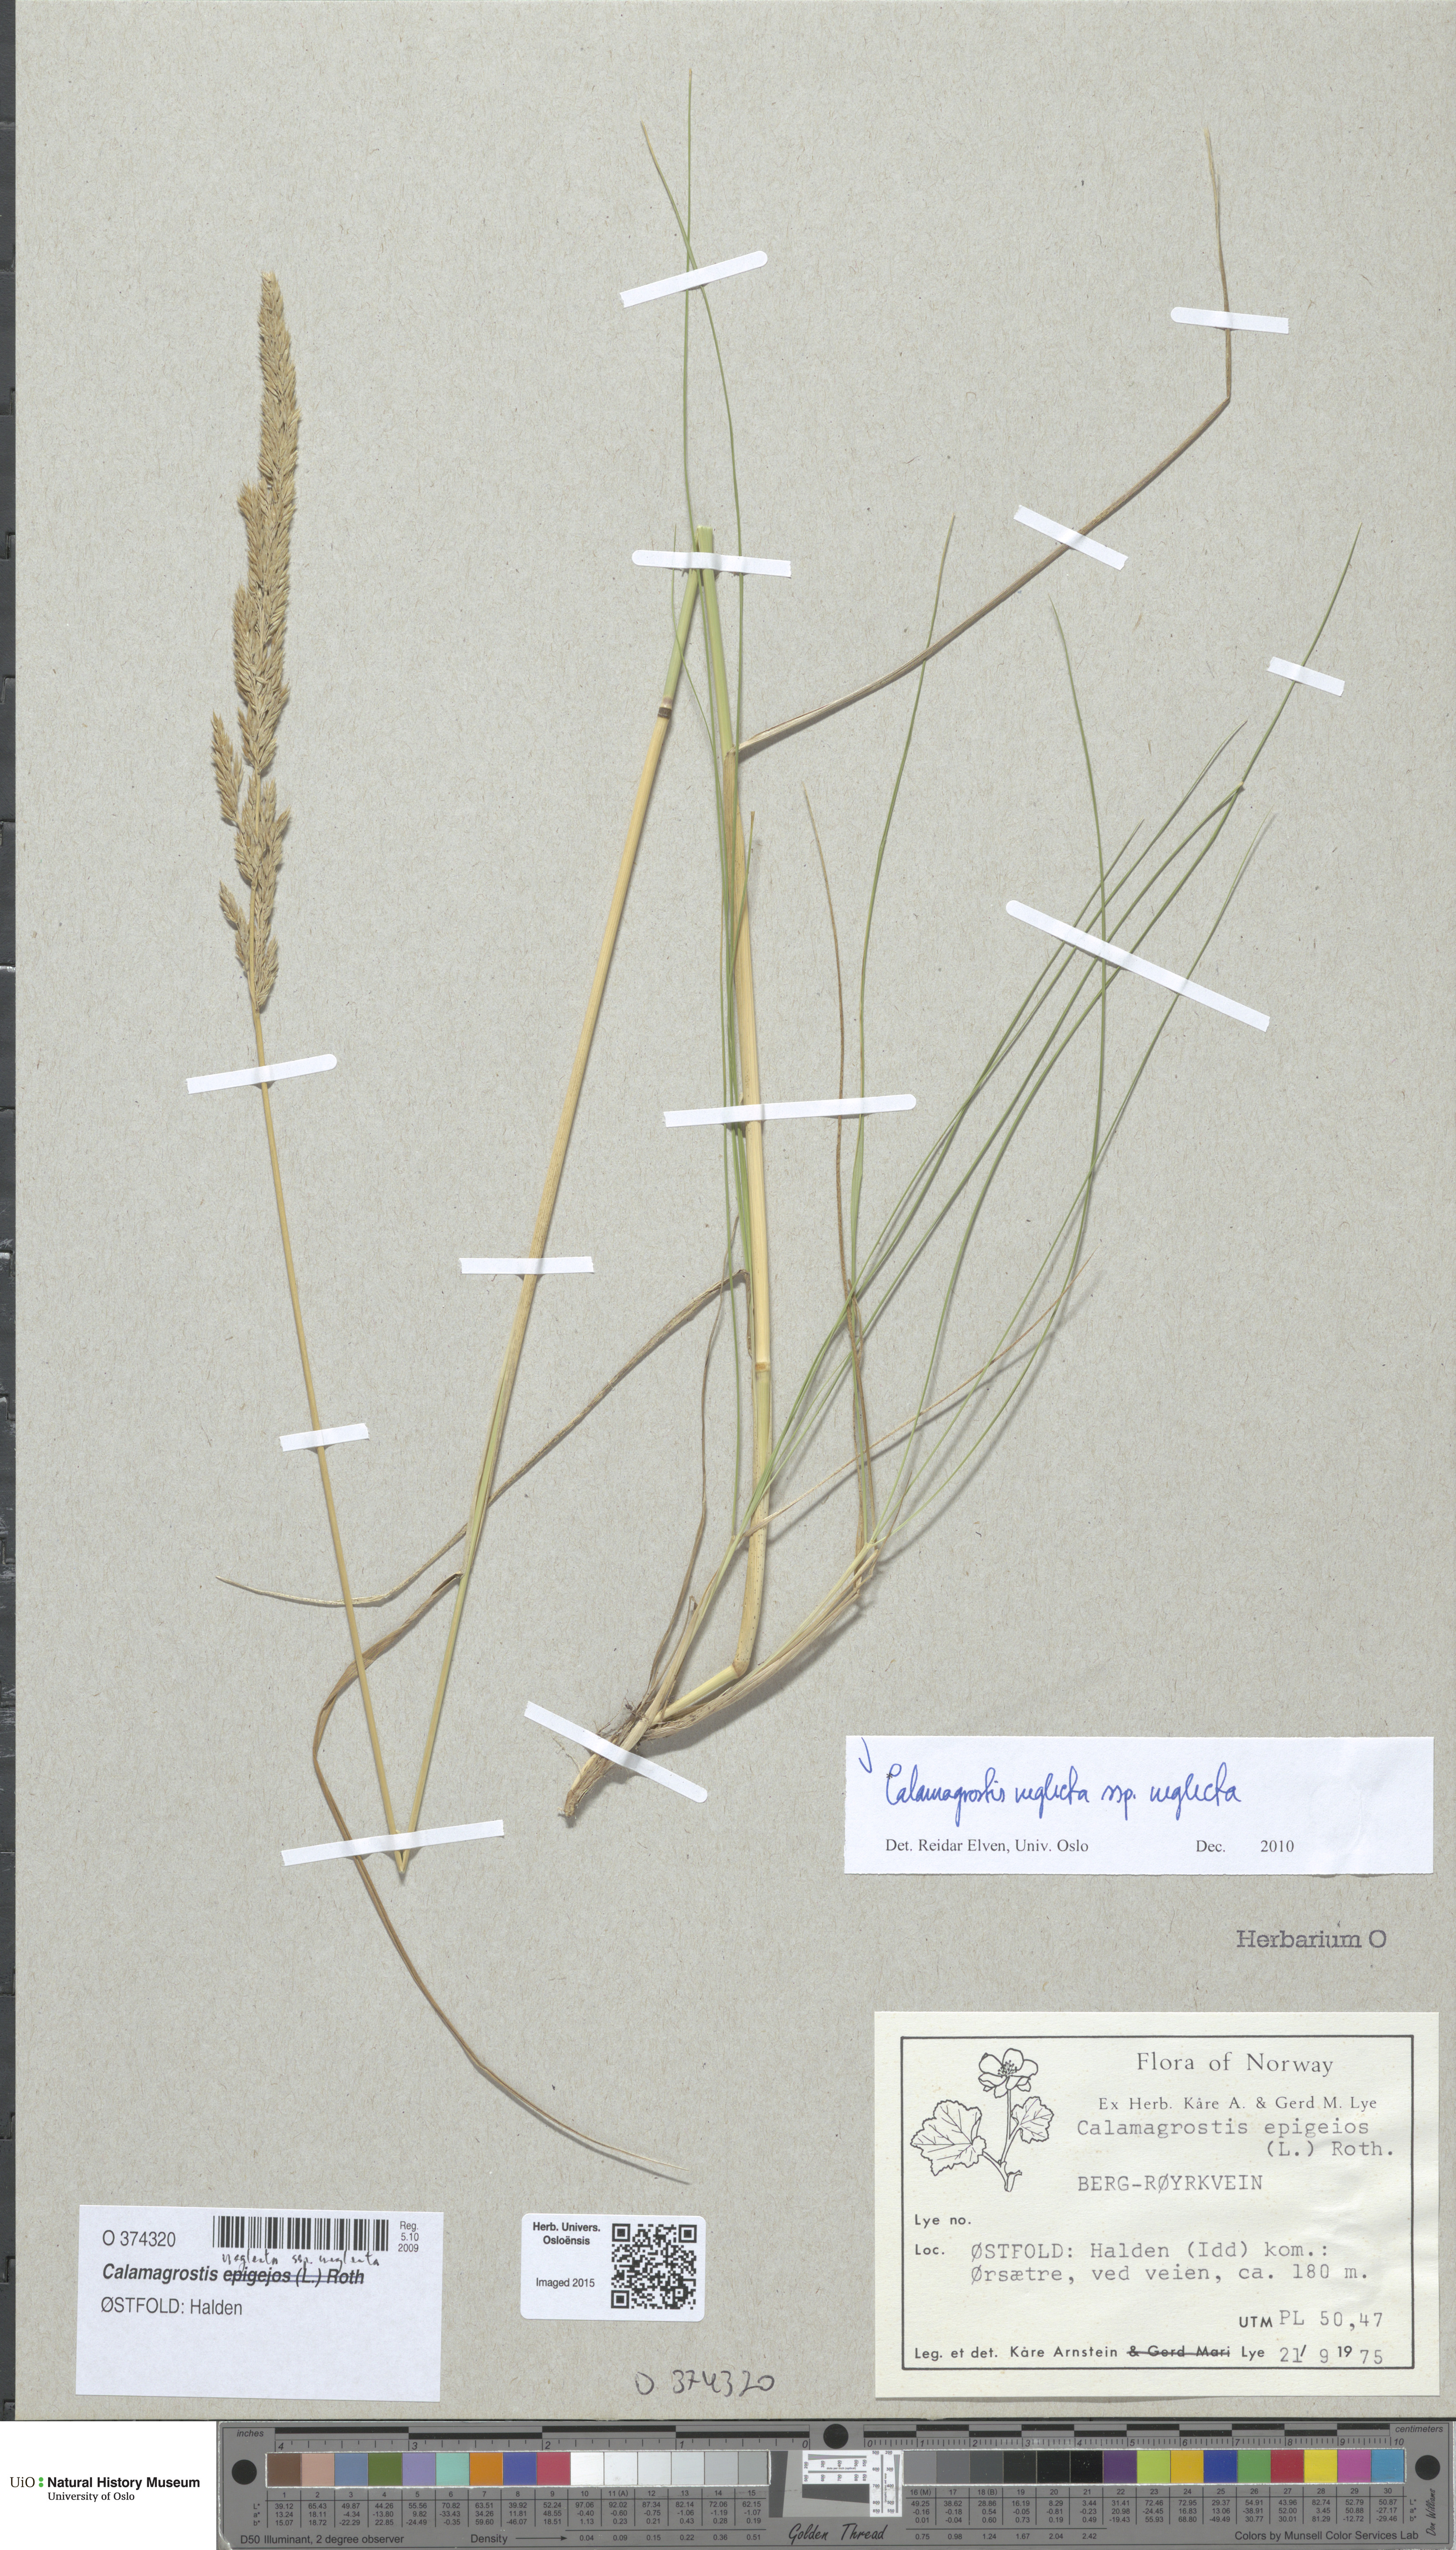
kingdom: Plantae
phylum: Tracheophyta
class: Liliopsida
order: Poales
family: Poaceae
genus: Achnatherum
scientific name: Achnatherum calamagrostis
